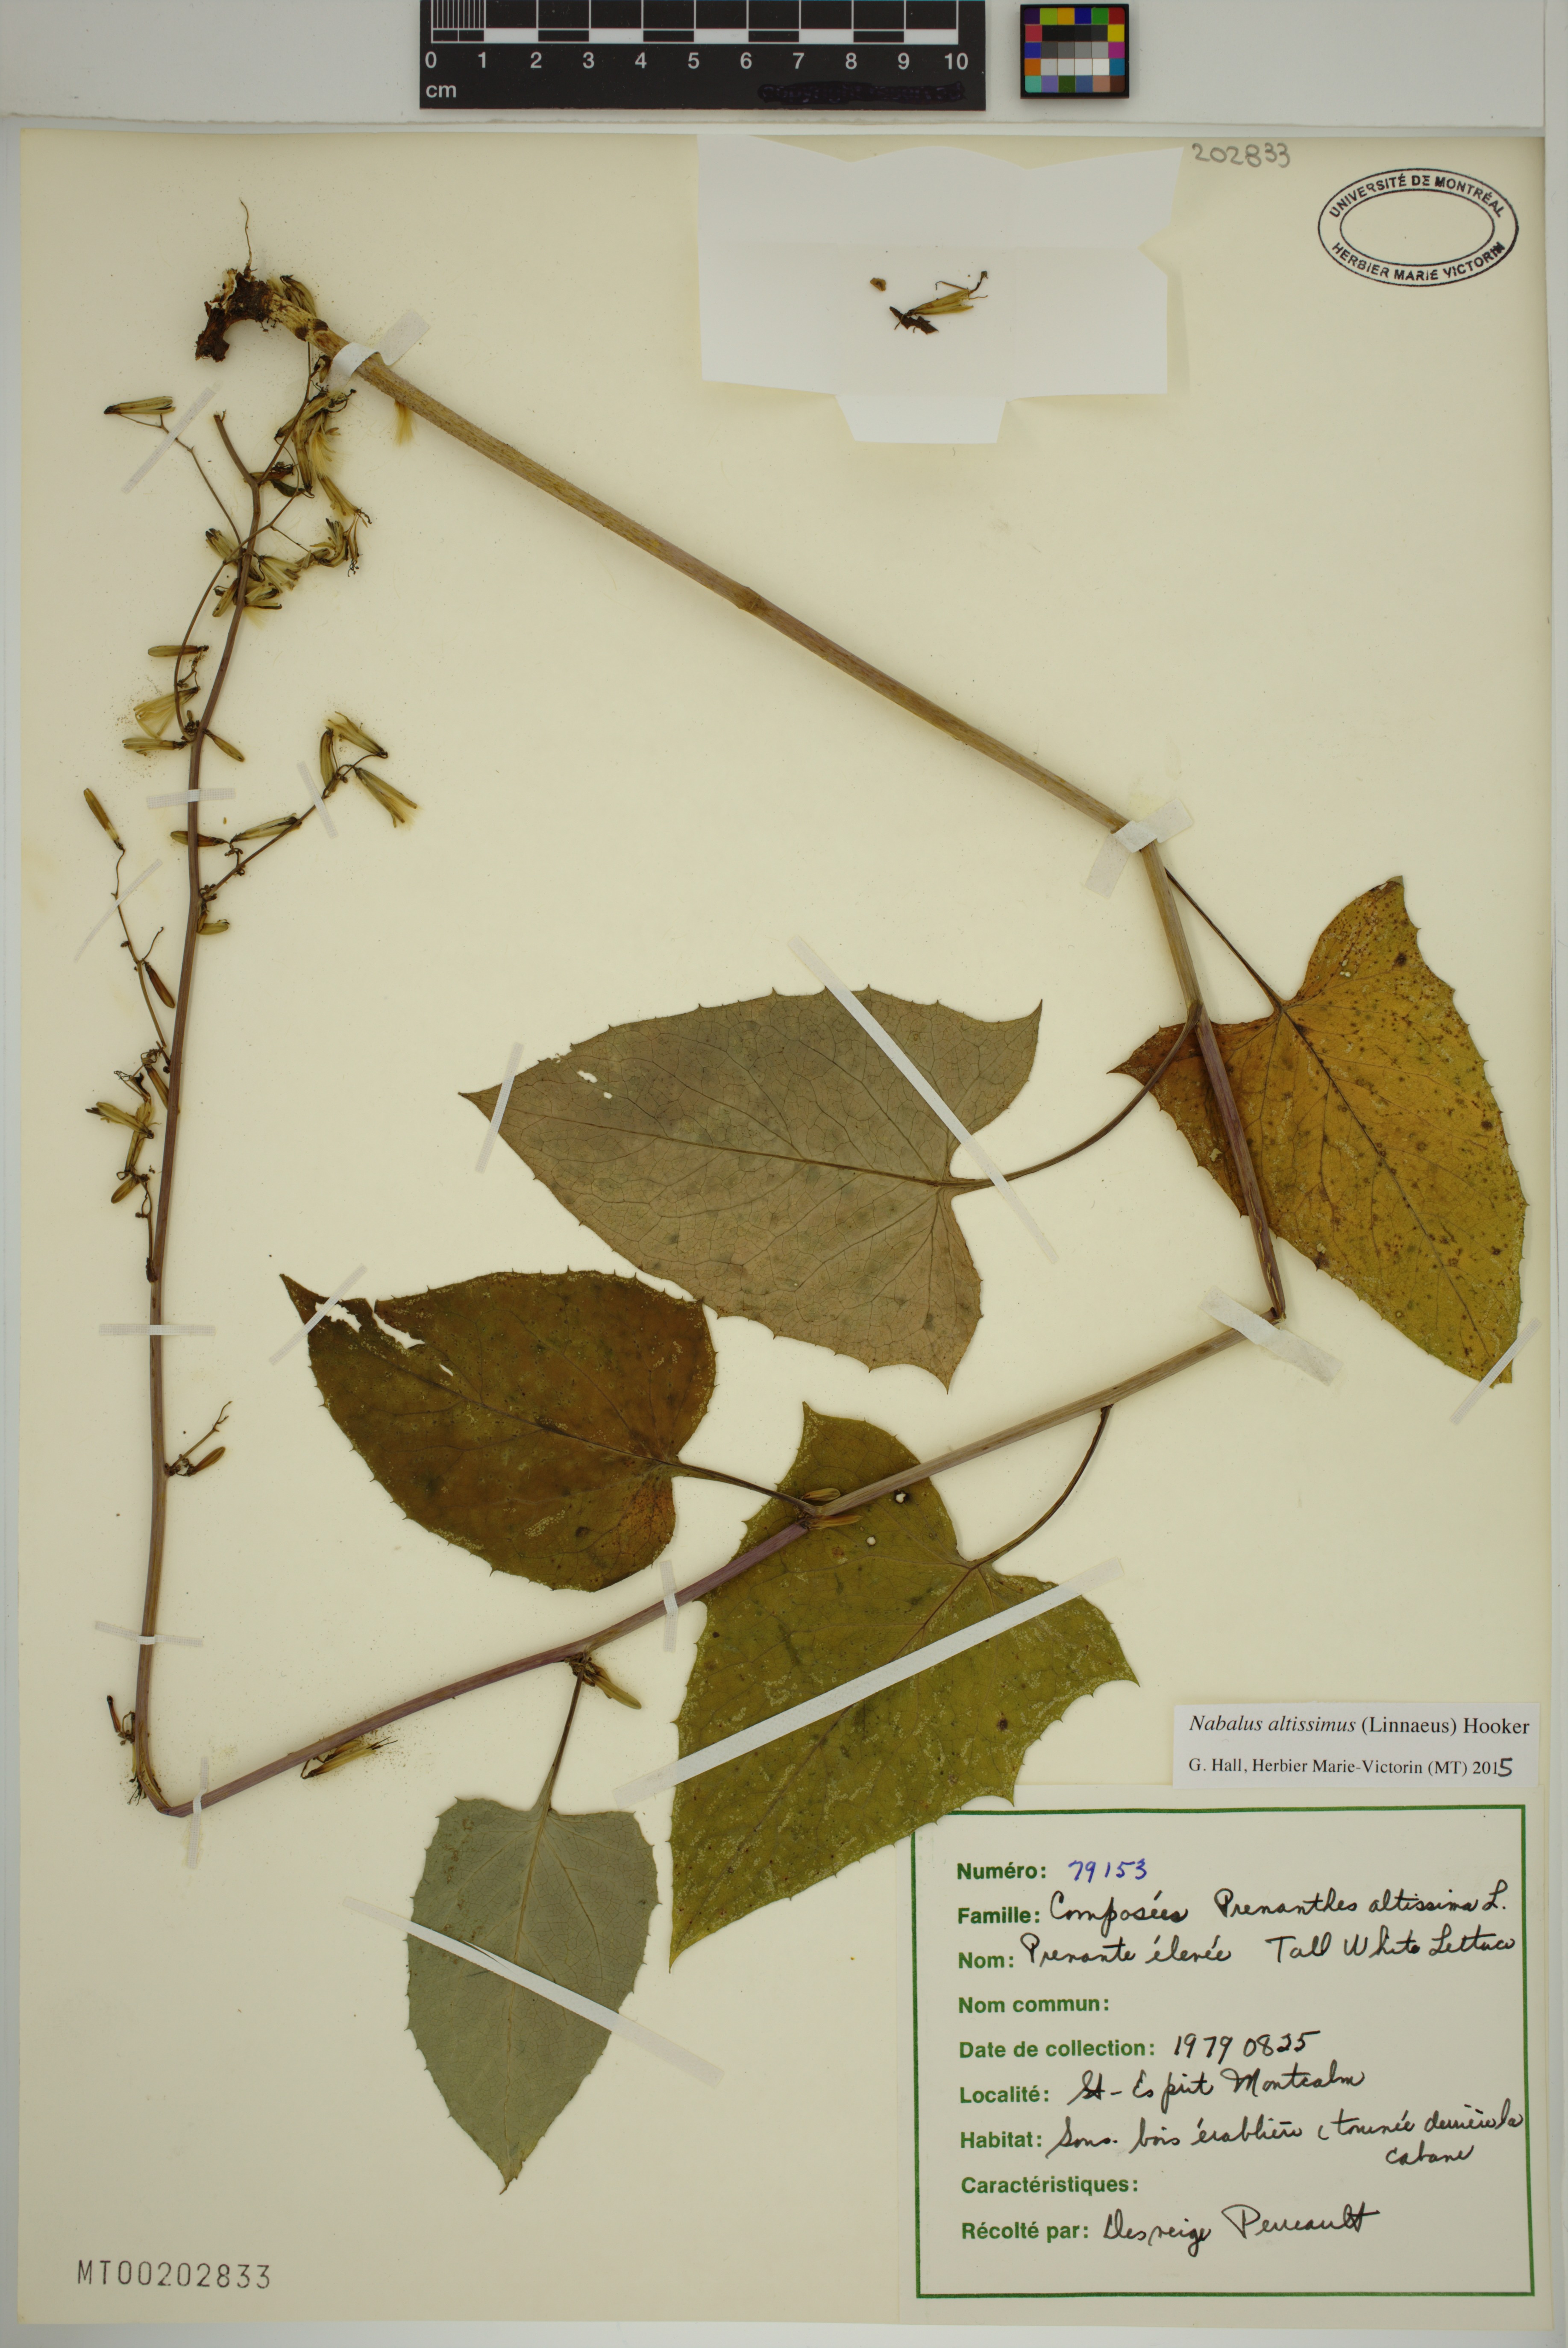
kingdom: Plantae
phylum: Tracheophyta
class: Magnoliopsida
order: Asterales
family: Asteraceae
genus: Nabalus
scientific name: Nabalus altissima
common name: Tall rattlesnakeroot
